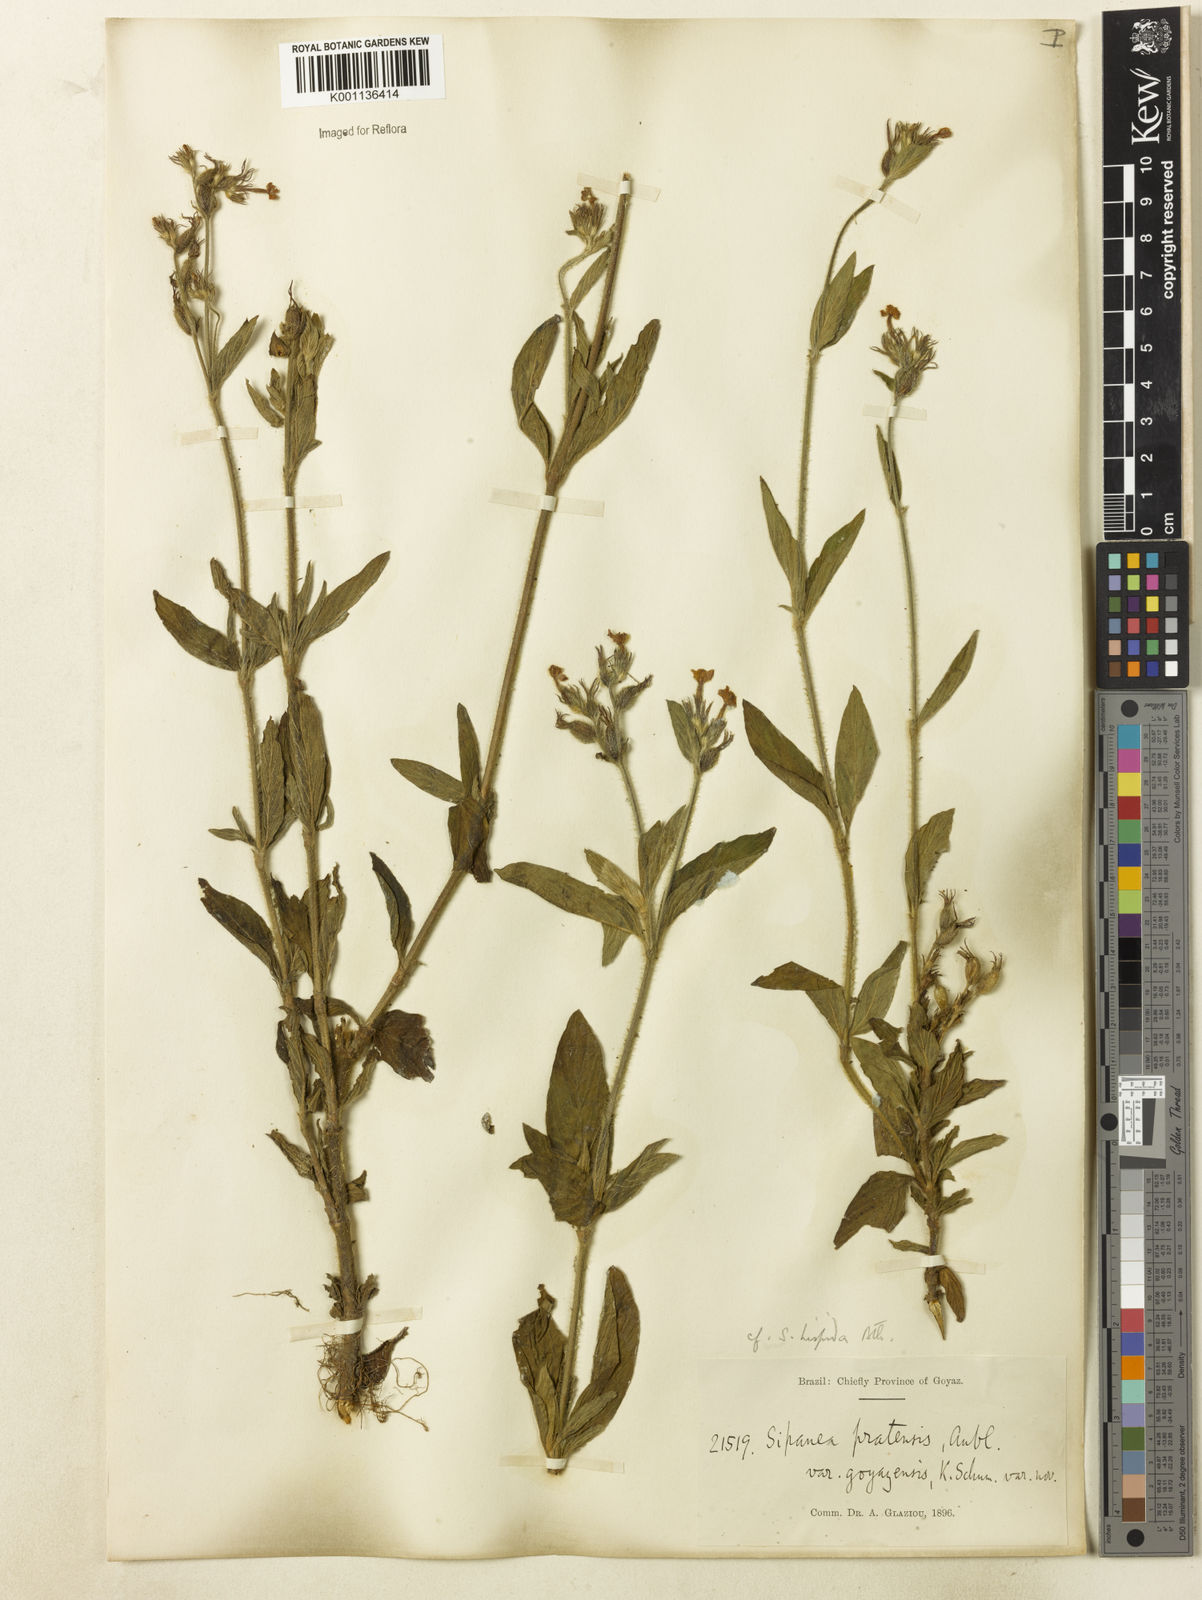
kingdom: Plantae
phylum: Tracheophyta
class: Magnoliopsida
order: Gentianales
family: Rubiaceae
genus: Sipanea
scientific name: Sipanea pratensis
